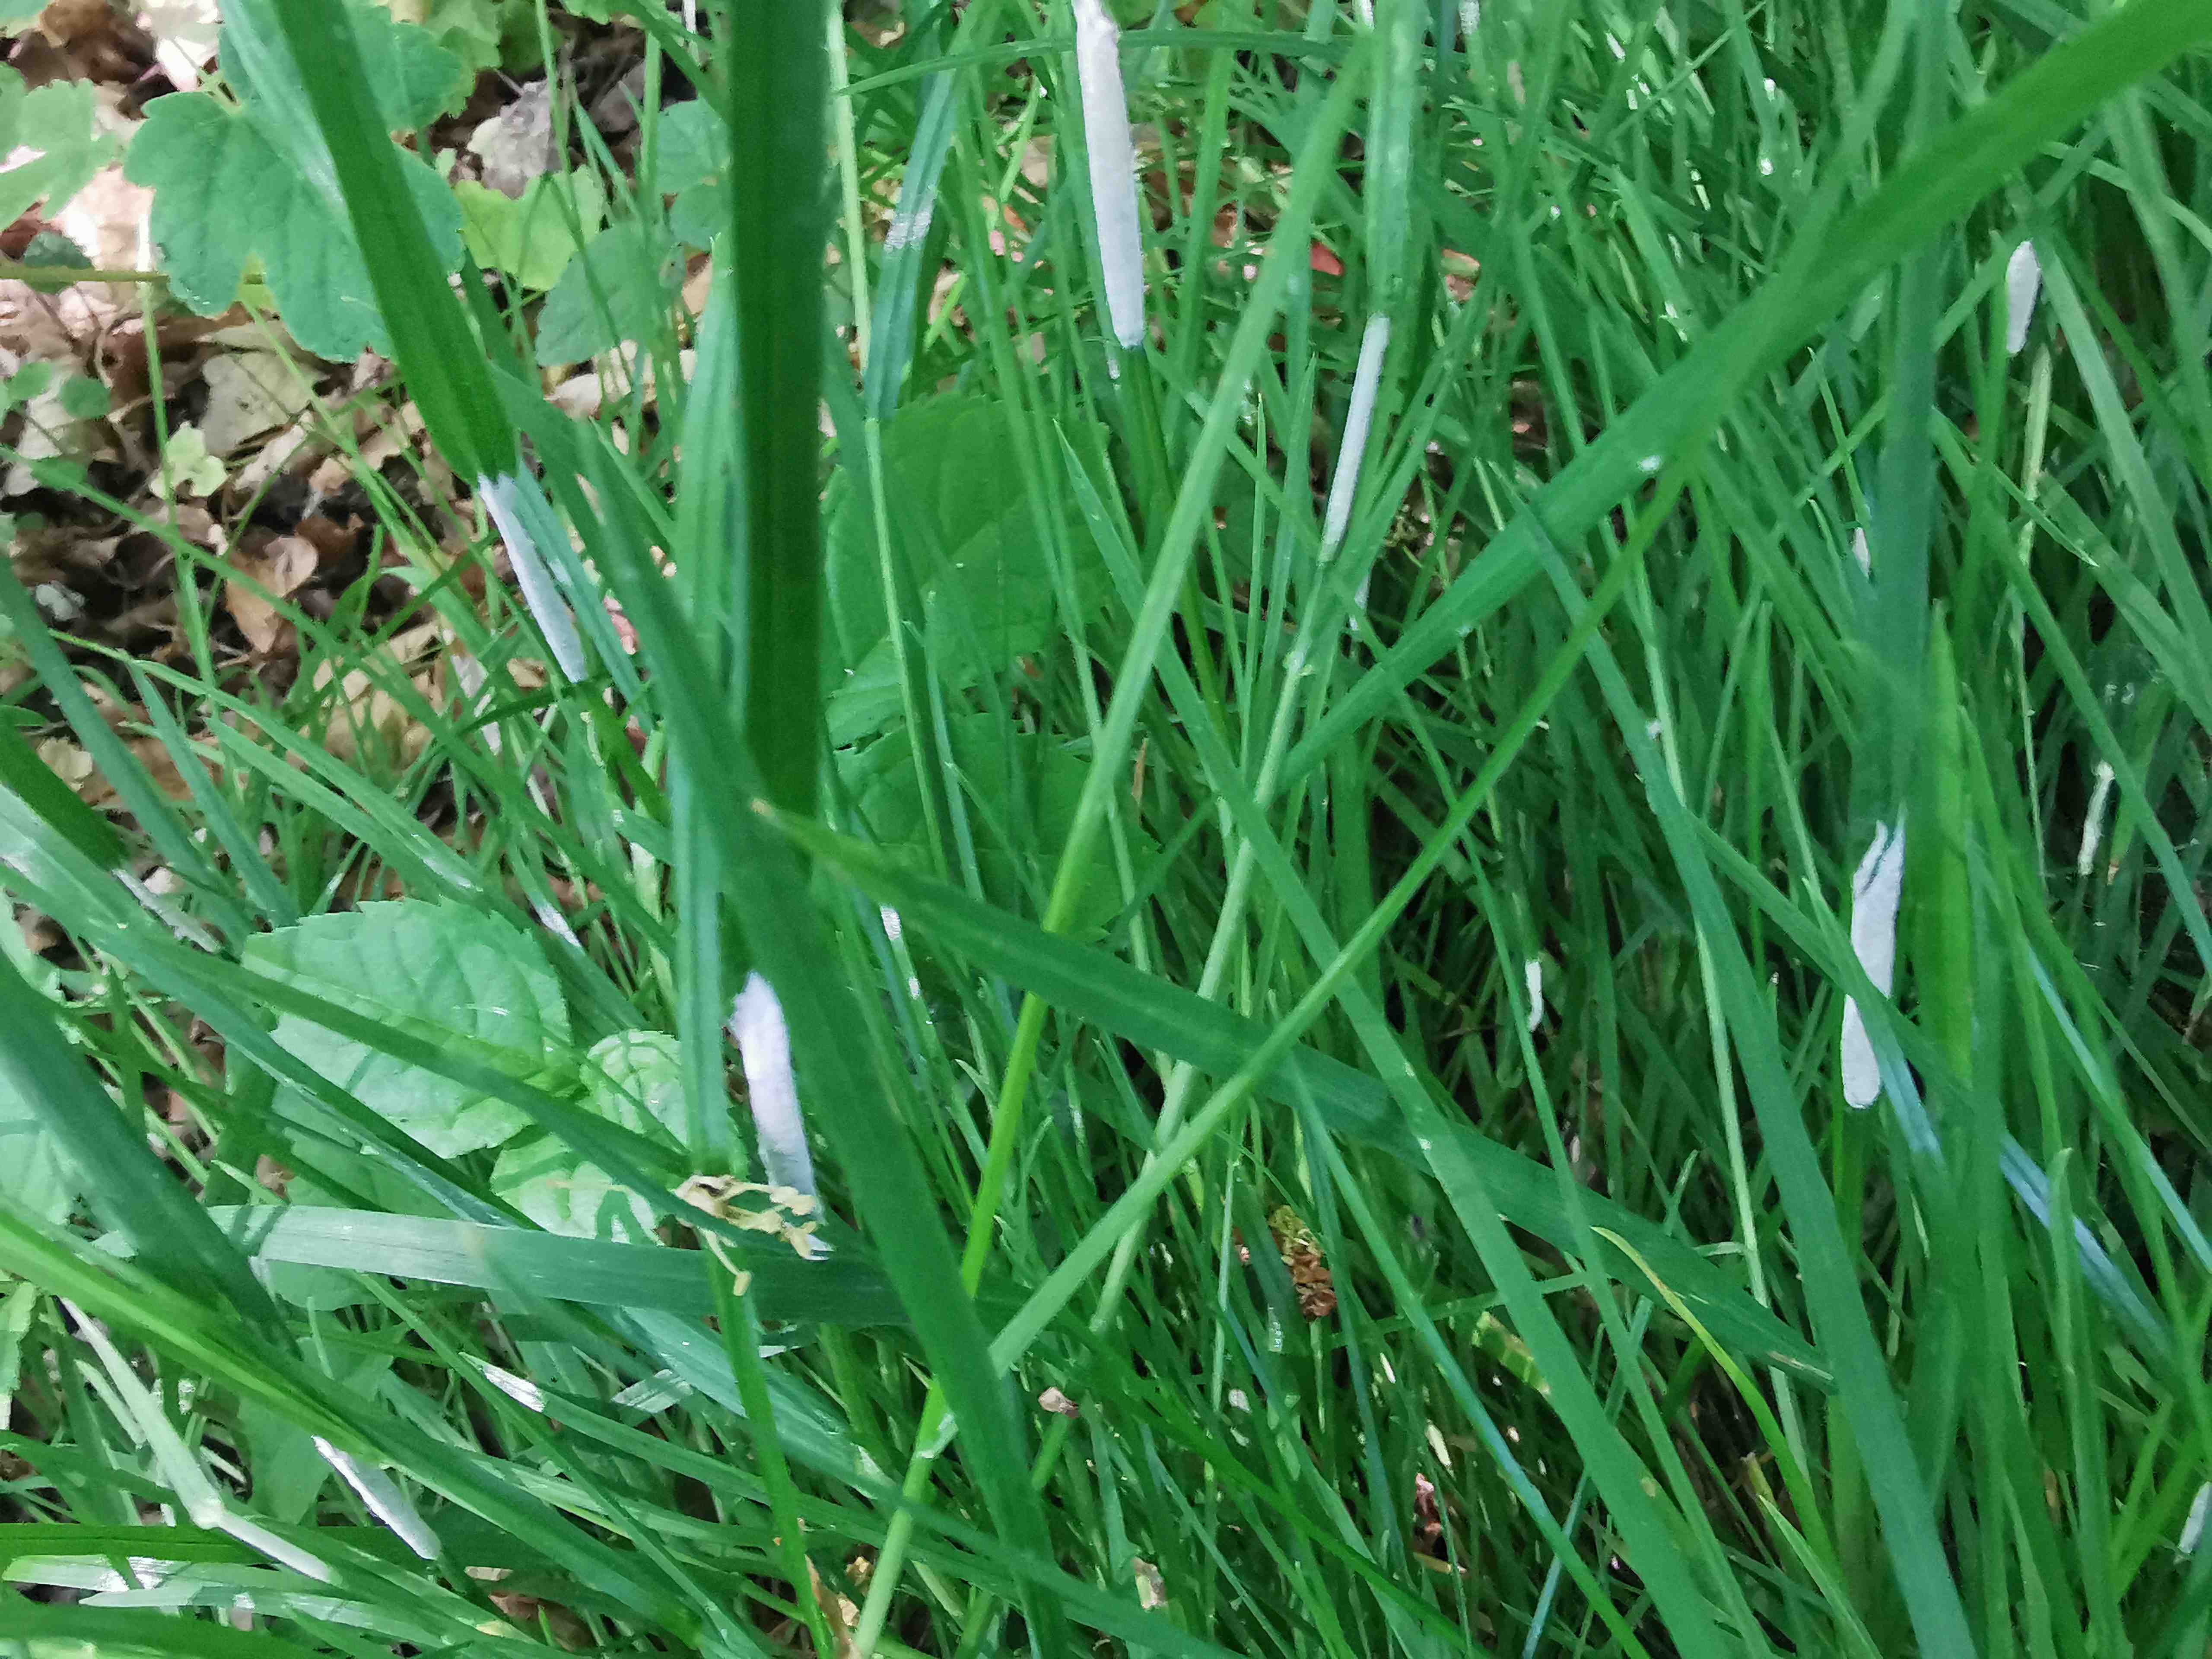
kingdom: Fungi
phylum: Ascomycota
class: Sordariomycetes
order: Hypocreales
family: Clavicipitaceae
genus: Epichloe
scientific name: Epichloe typhina
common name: almindelig kernerør
